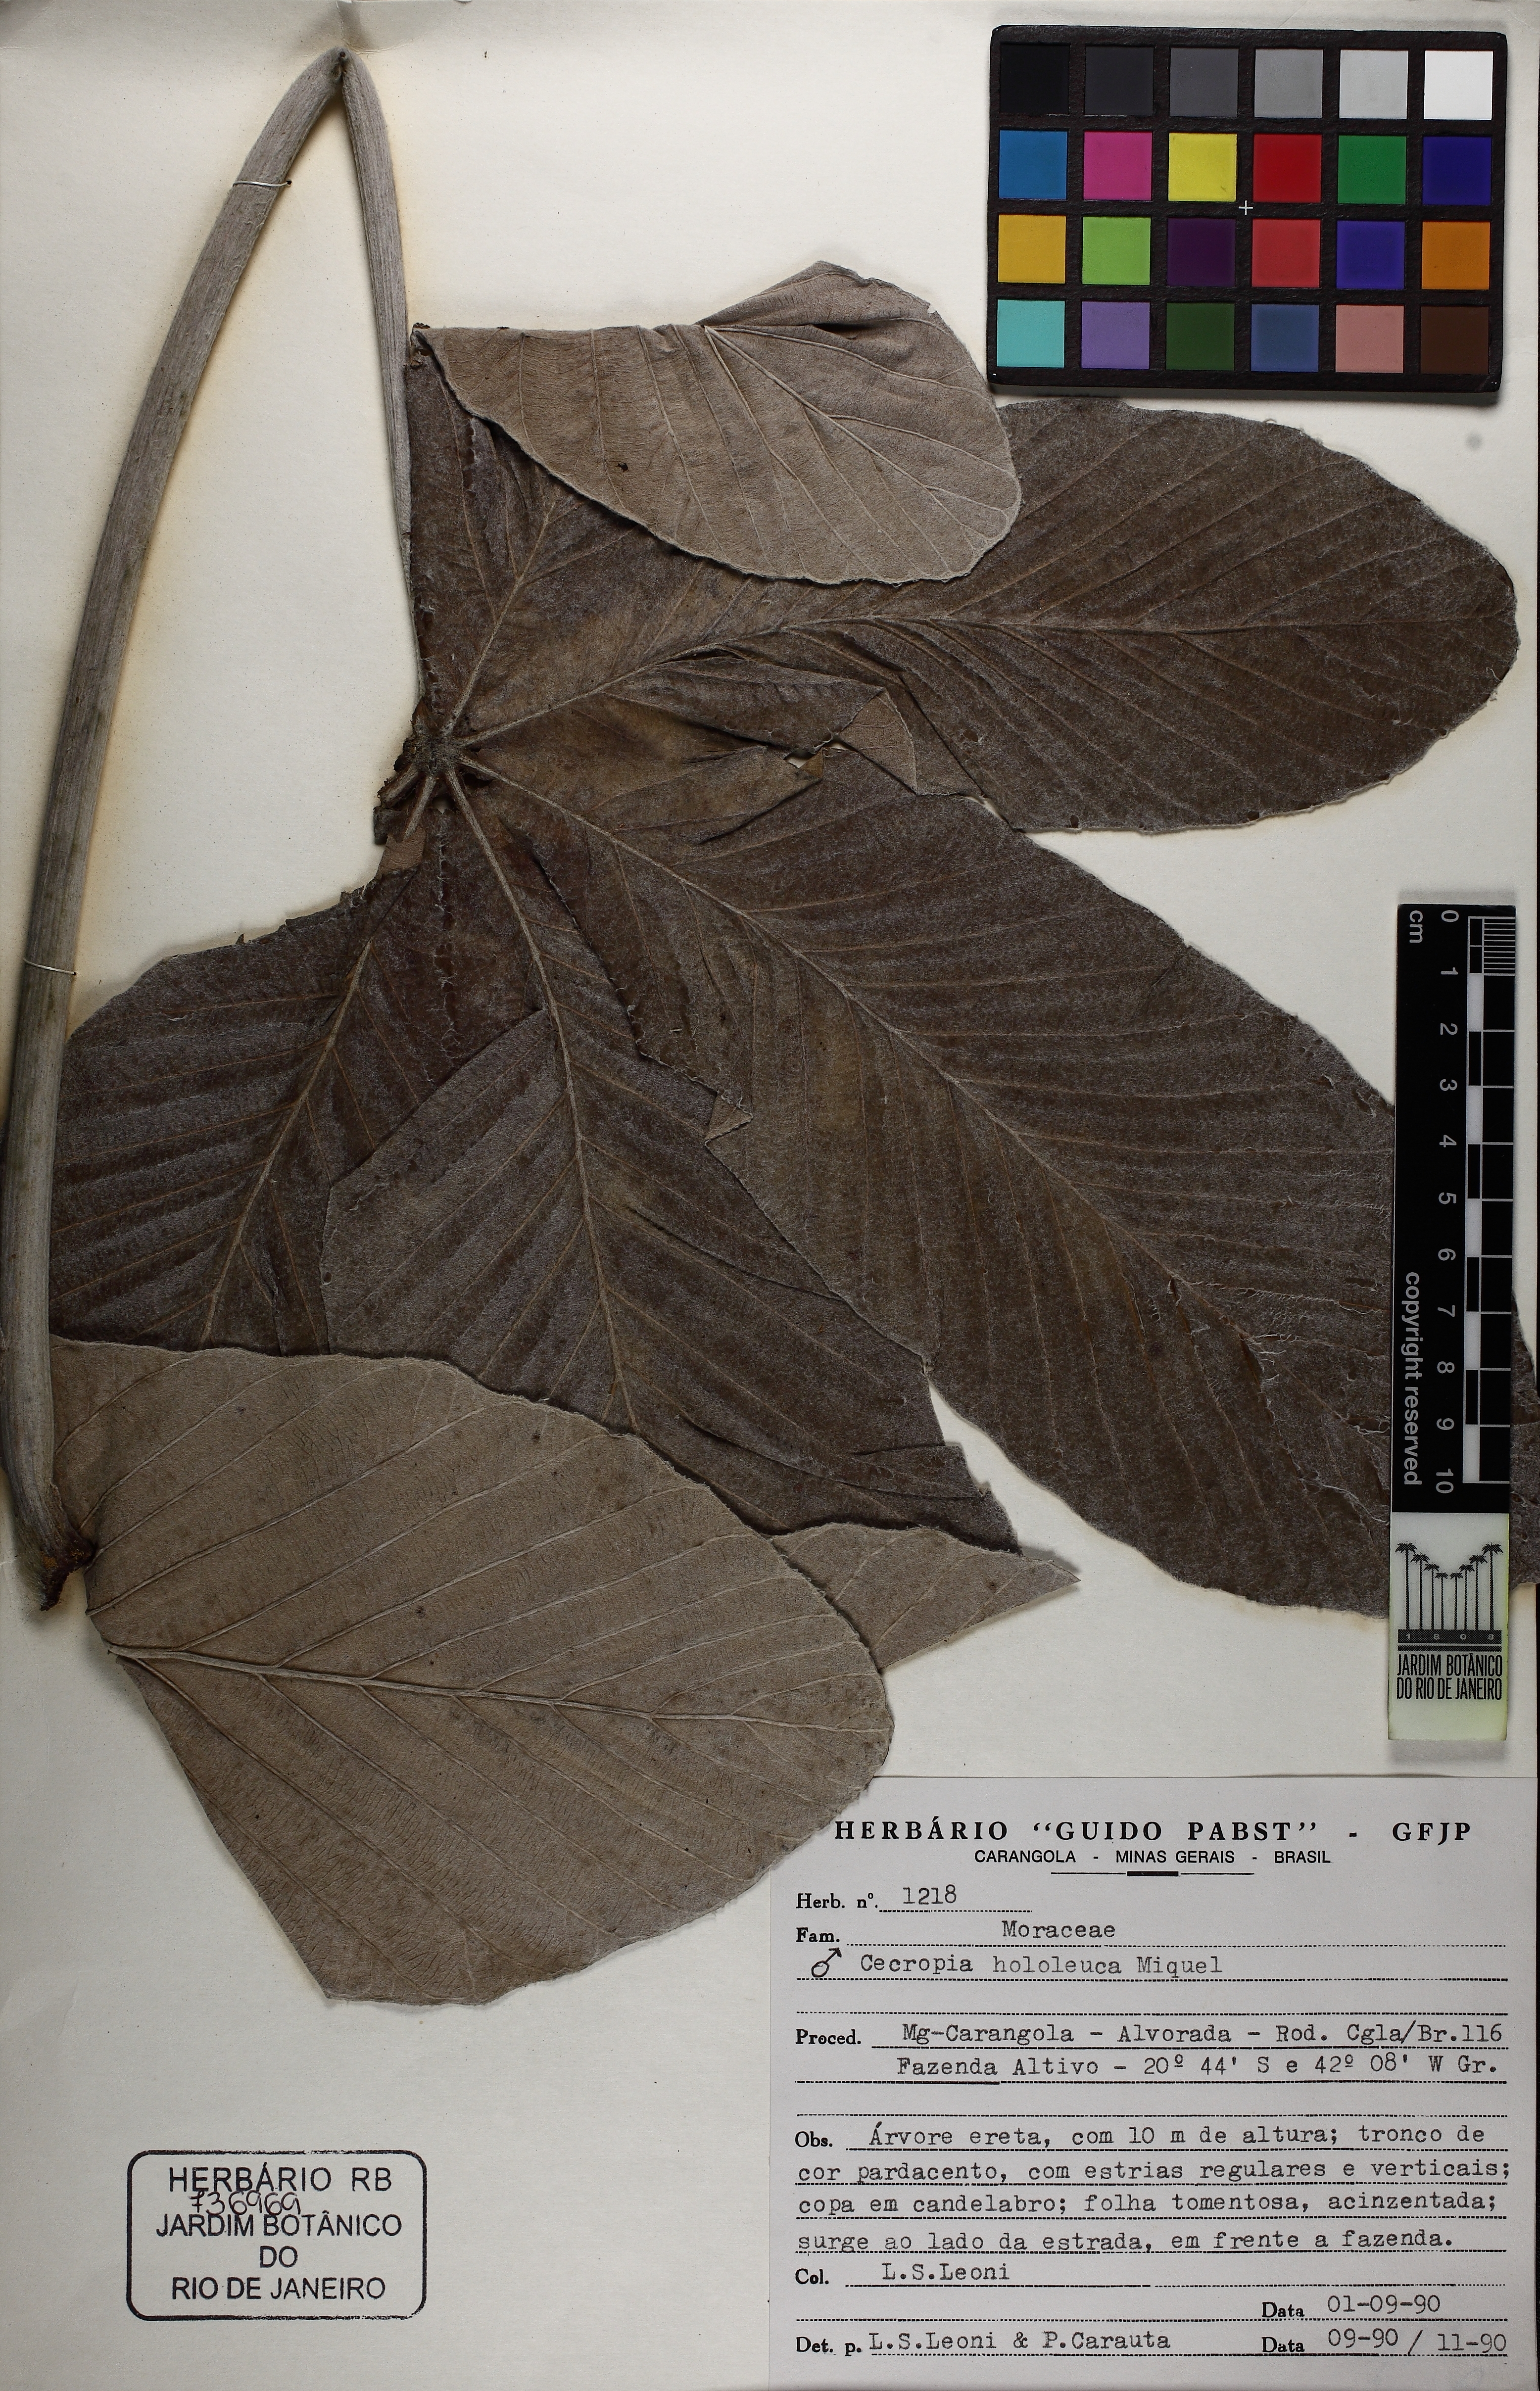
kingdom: Plantae
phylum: Tracheophyta
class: Magnoliopsida
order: Rosales
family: Urticaceae
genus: Cecropia
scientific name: Cecropia hololeuca
